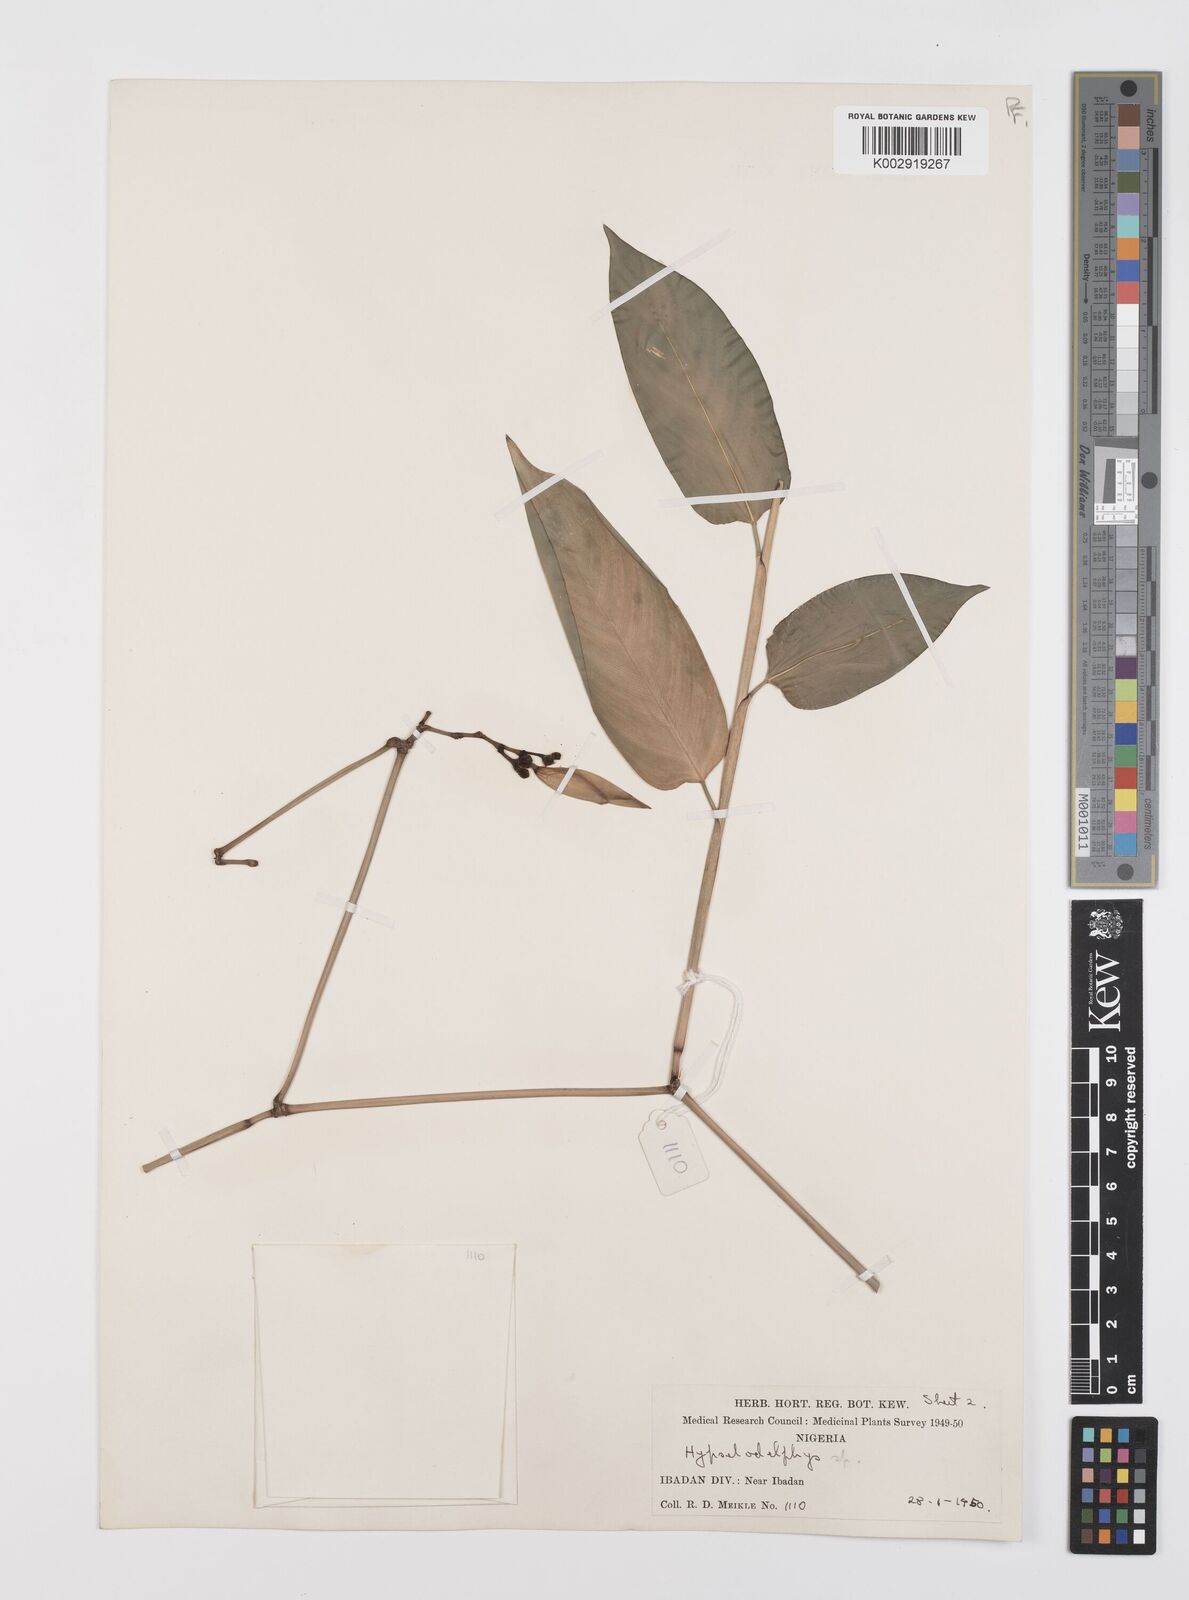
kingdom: Plantae
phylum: Tracheophyta
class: Liliopsida
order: Zingiberales
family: Marantaceae
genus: Hypselodelphys
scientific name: Hypselodelphys
